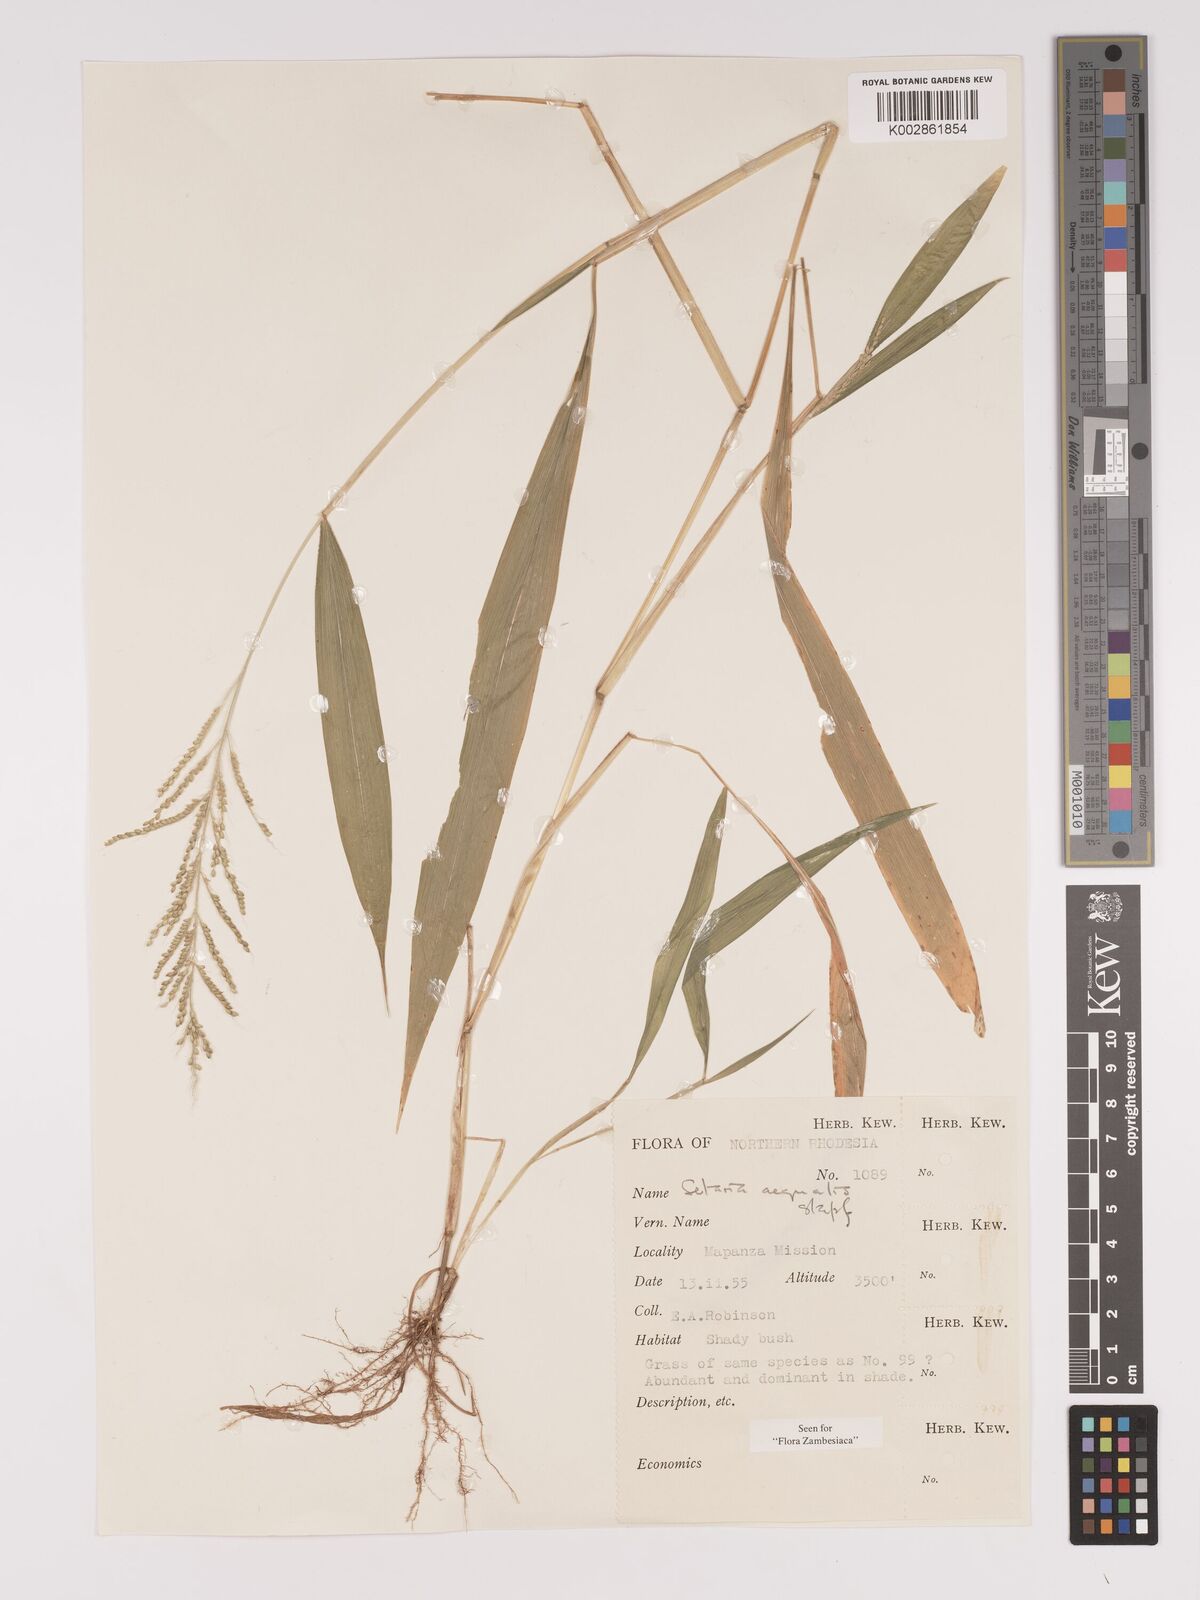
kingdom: Plantae
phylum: Tracheophyta
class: Liliopsida
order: Poales
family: Poaceae
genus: Setaria
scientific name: Setaria homonyma
